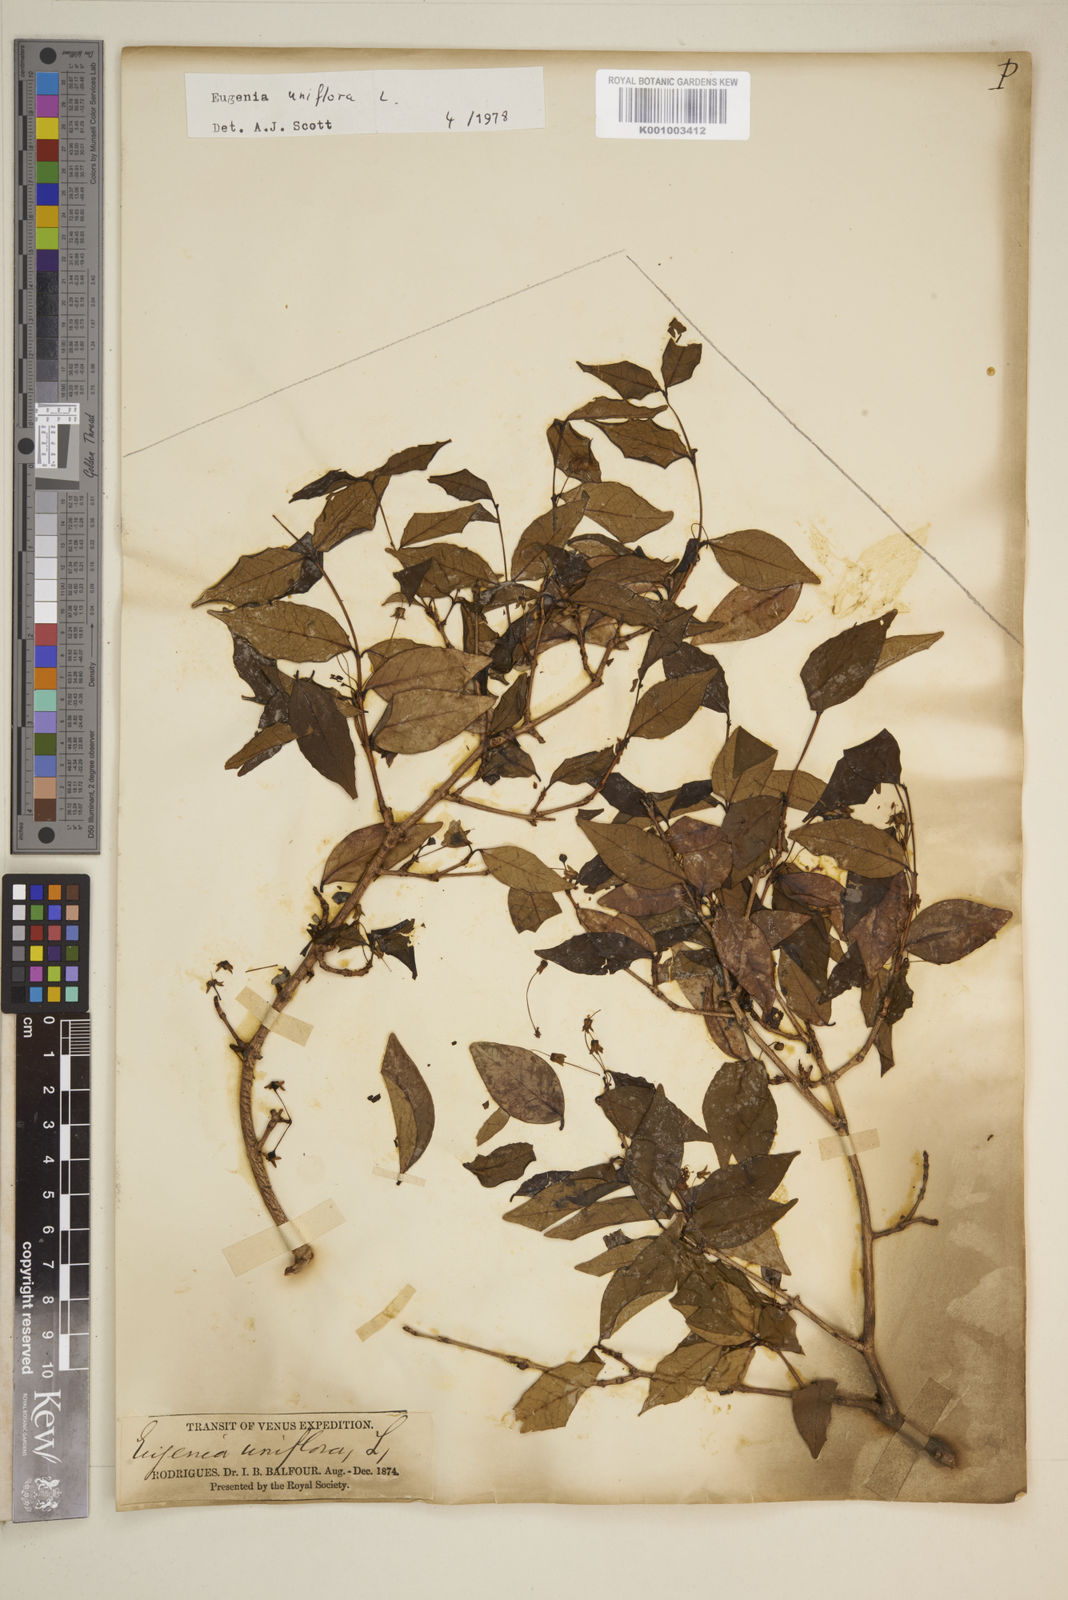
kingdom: Plantae
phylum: Tracheophyta
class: Magnoliopsida
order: Myrtales
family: Myrtaceae
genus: Eugenia
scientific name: Eugenia uniflora
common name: Surinam cherry
